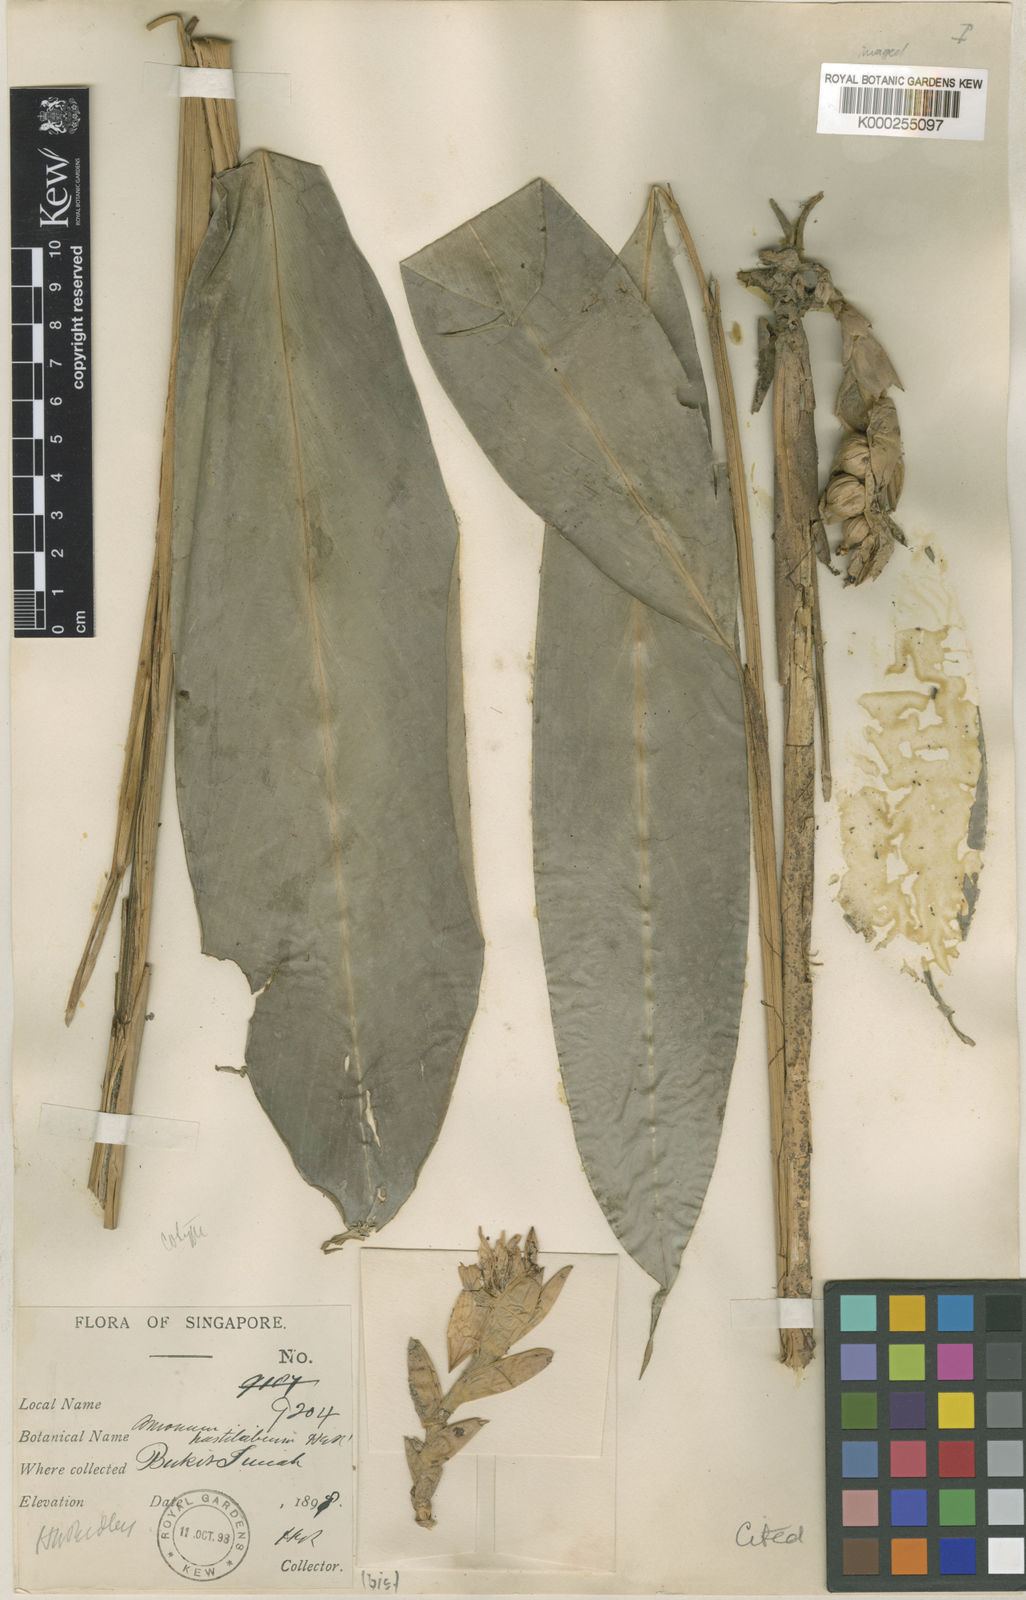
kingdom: Plantae
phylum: Tracheophyta
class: Liliopsida
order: Zingiberales
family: Zingiberaceae
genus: Sundamomum
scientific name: Sundamomum hastilabium
